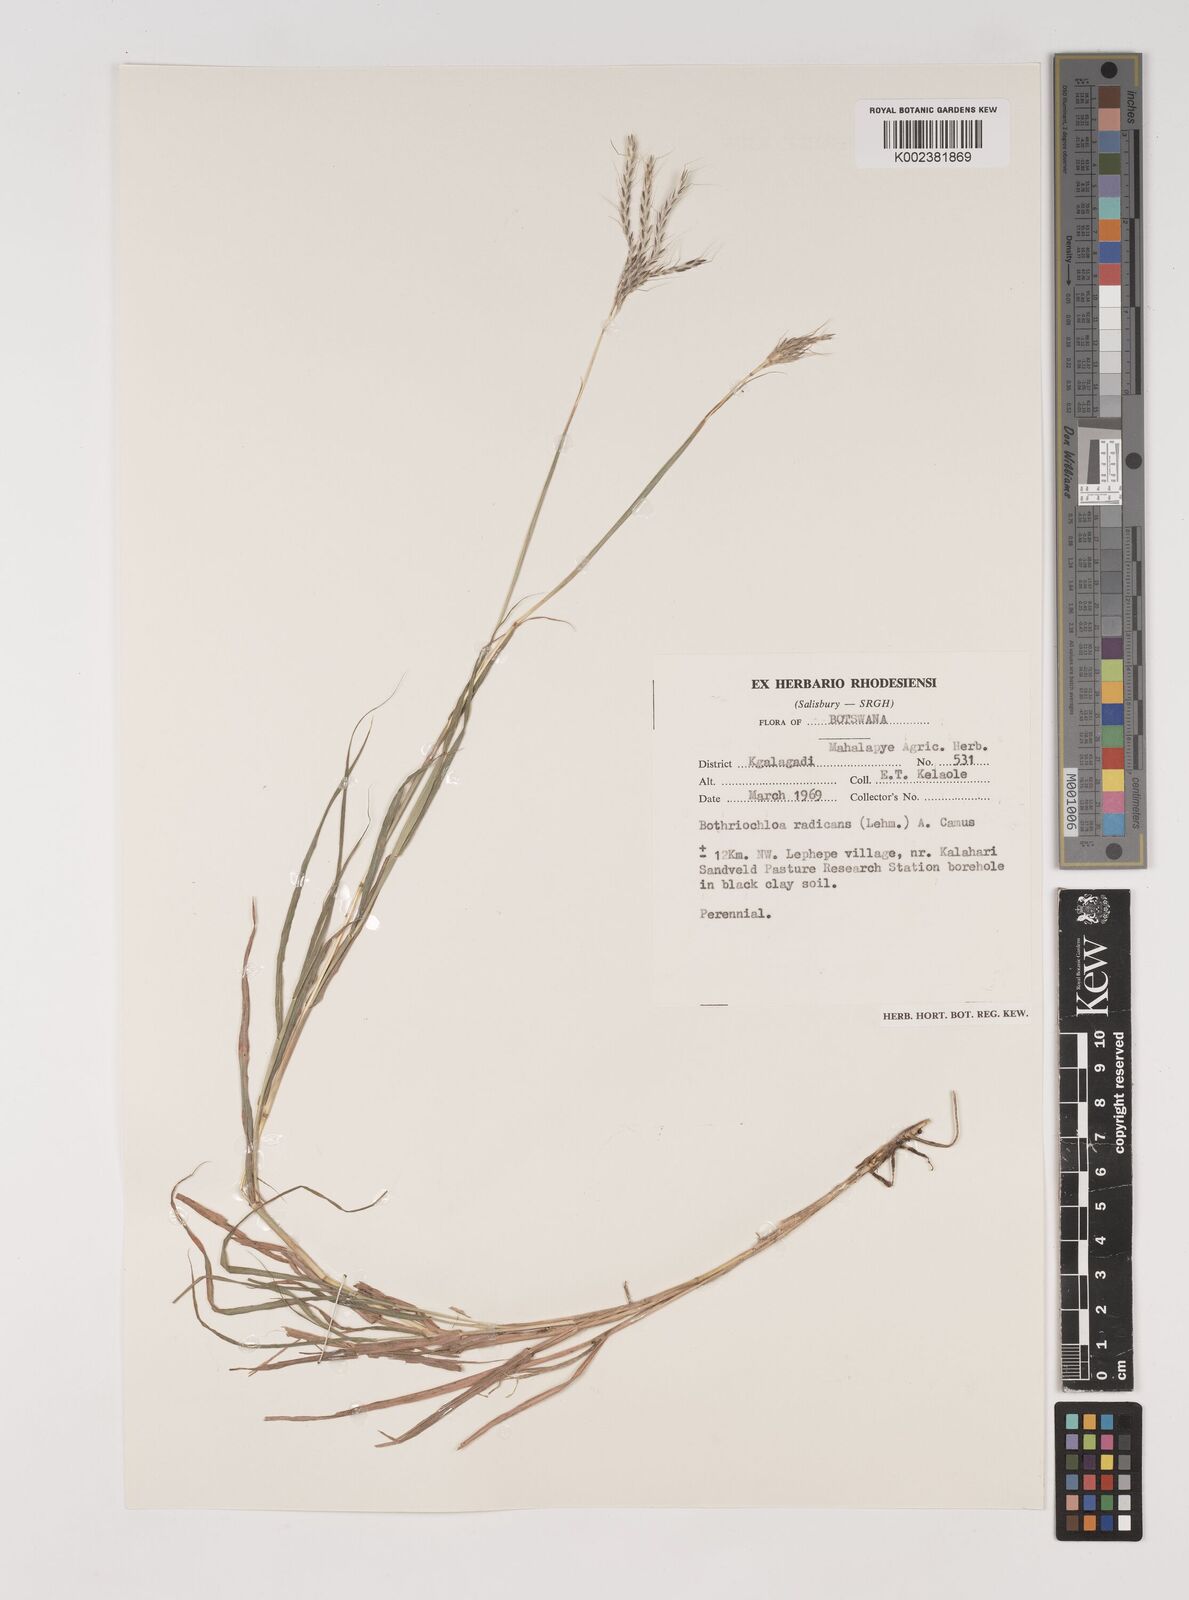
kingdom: Plantae
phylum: Tracheophyta
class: Liliopsida
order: Poales
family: Poaceae
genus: Bothriochloa
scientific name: Bothriochloa radicans
